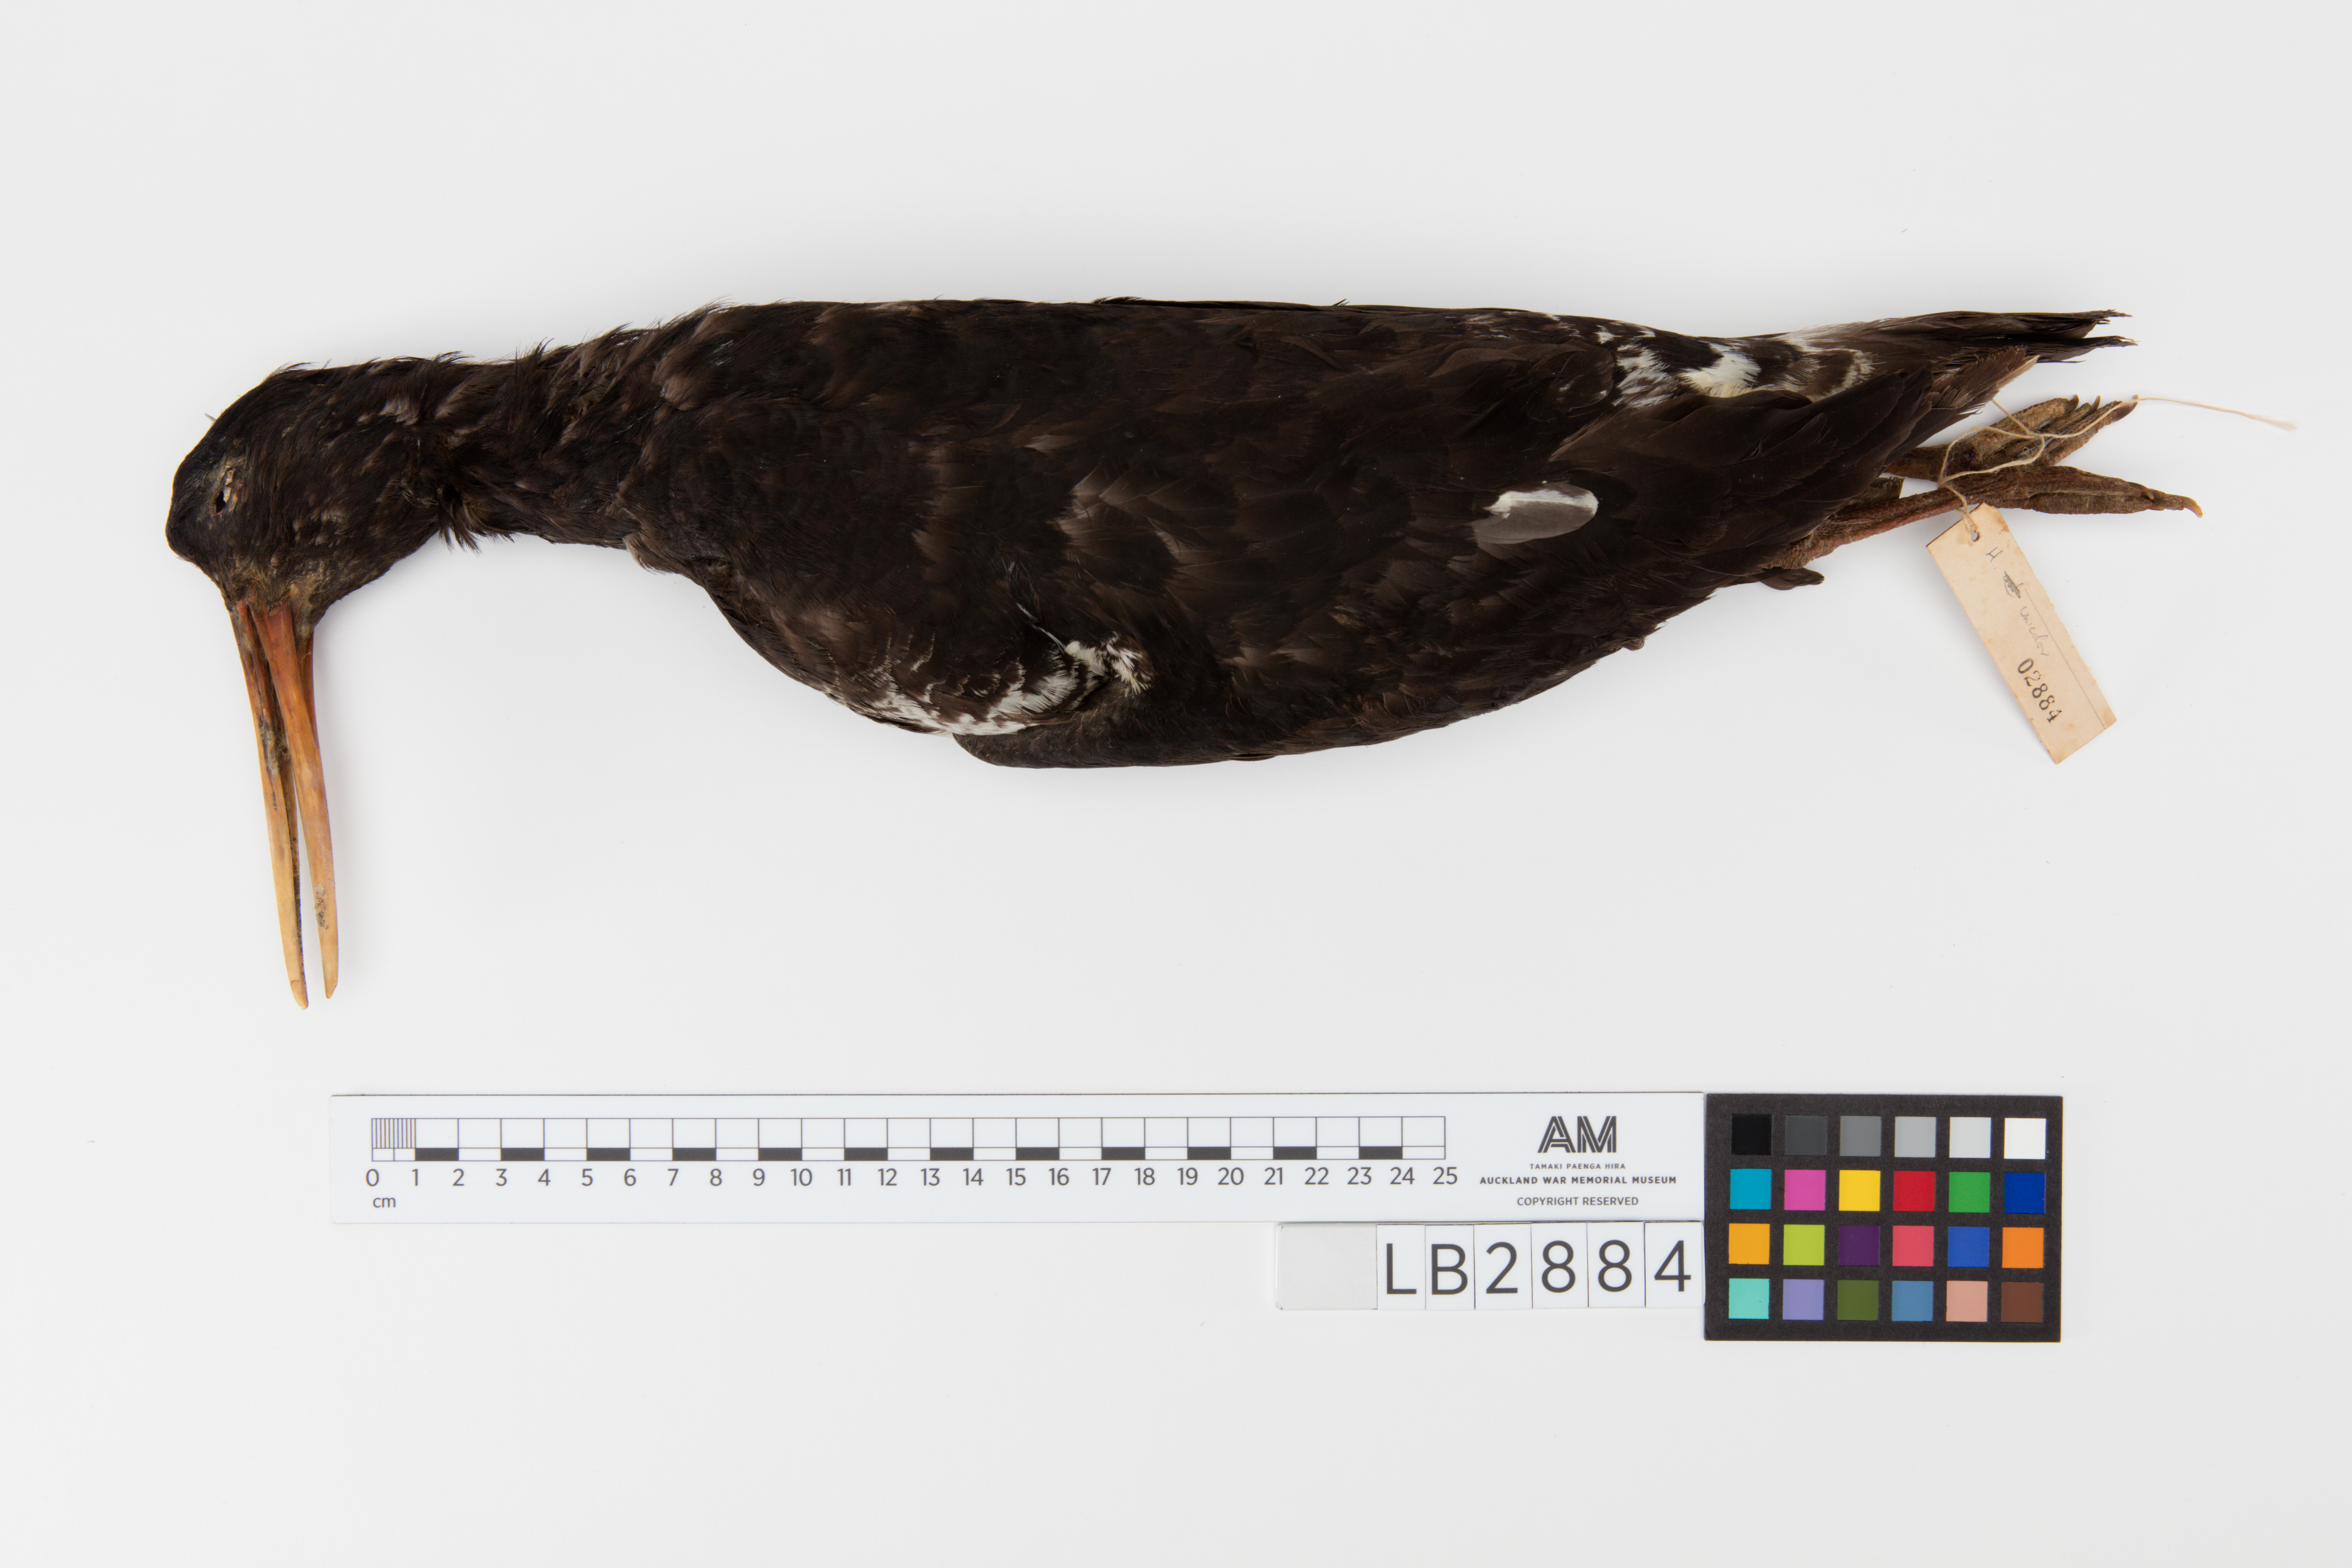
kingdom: Animalia
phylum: Chordata
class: Aves
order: Charadriiformes
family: Haematopodidae
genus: Haematopus
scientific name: Haematopus unicolor
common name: Variable oystercatcher
